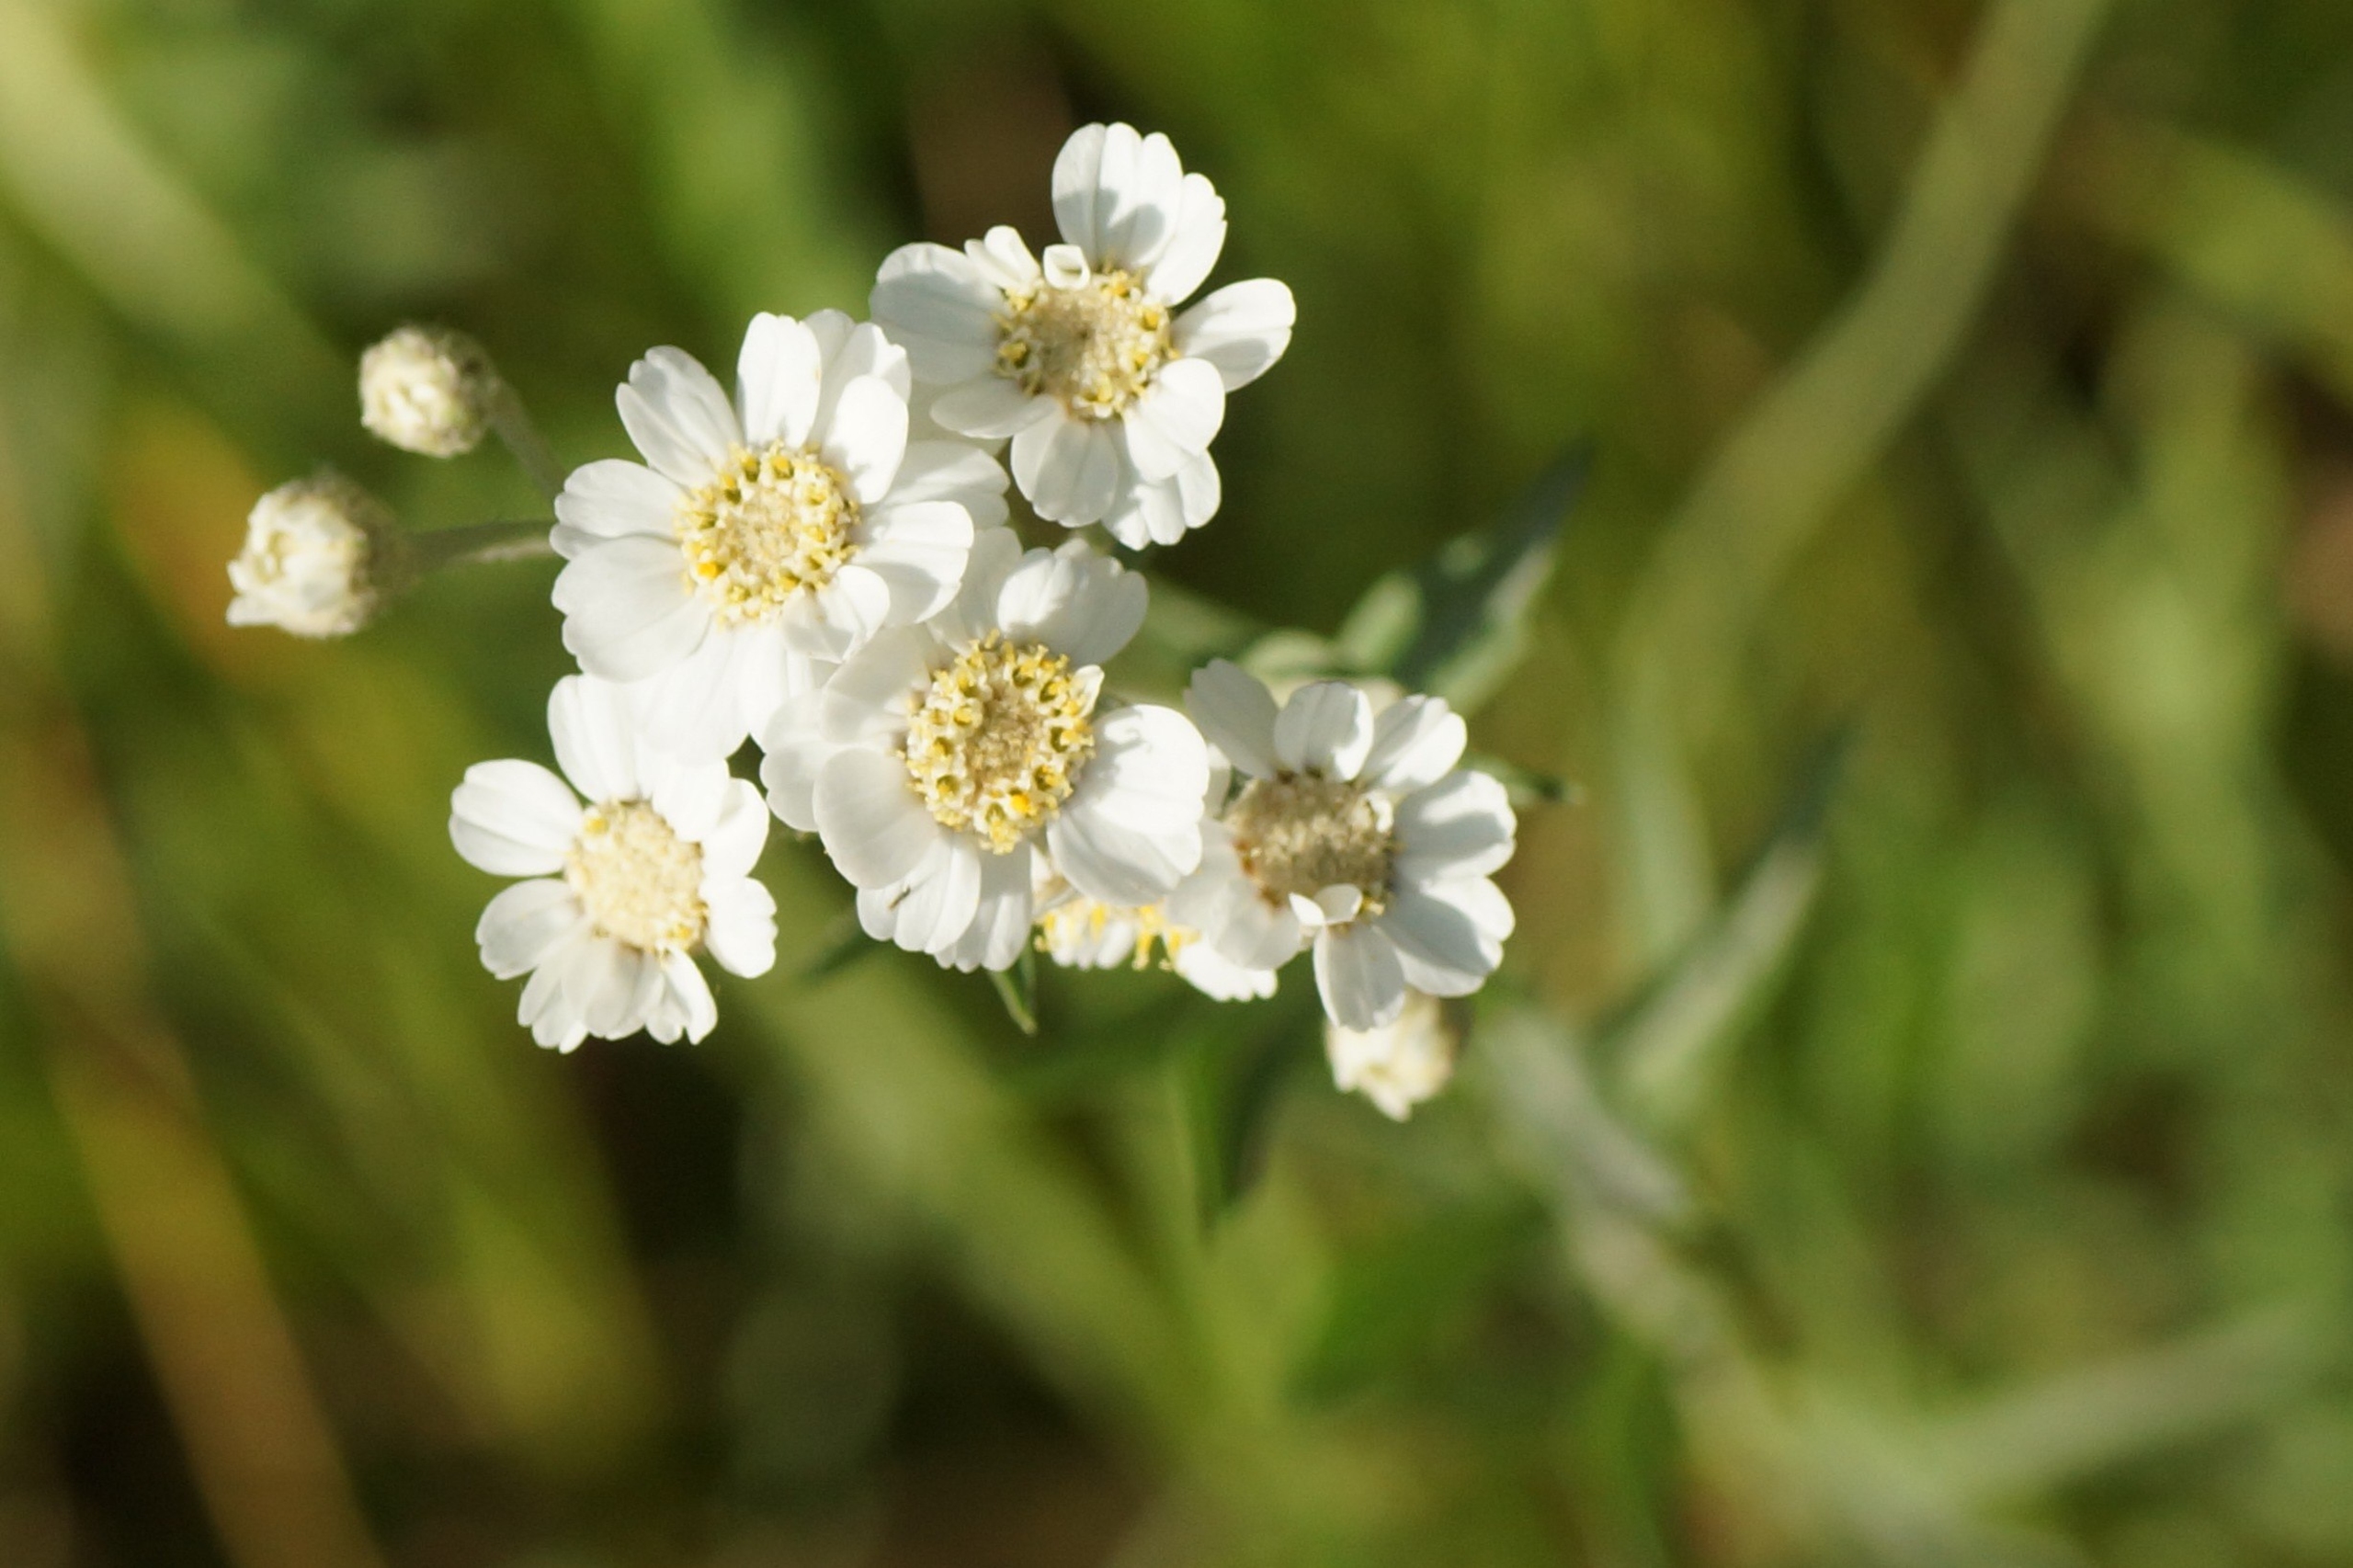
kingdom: Plantae
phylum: Tracheophyta
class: Magnoliopsida
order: Asterales
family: Asteraceae
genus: Achillea
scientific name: Achillea ptarmica
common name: Nyse-røllike
